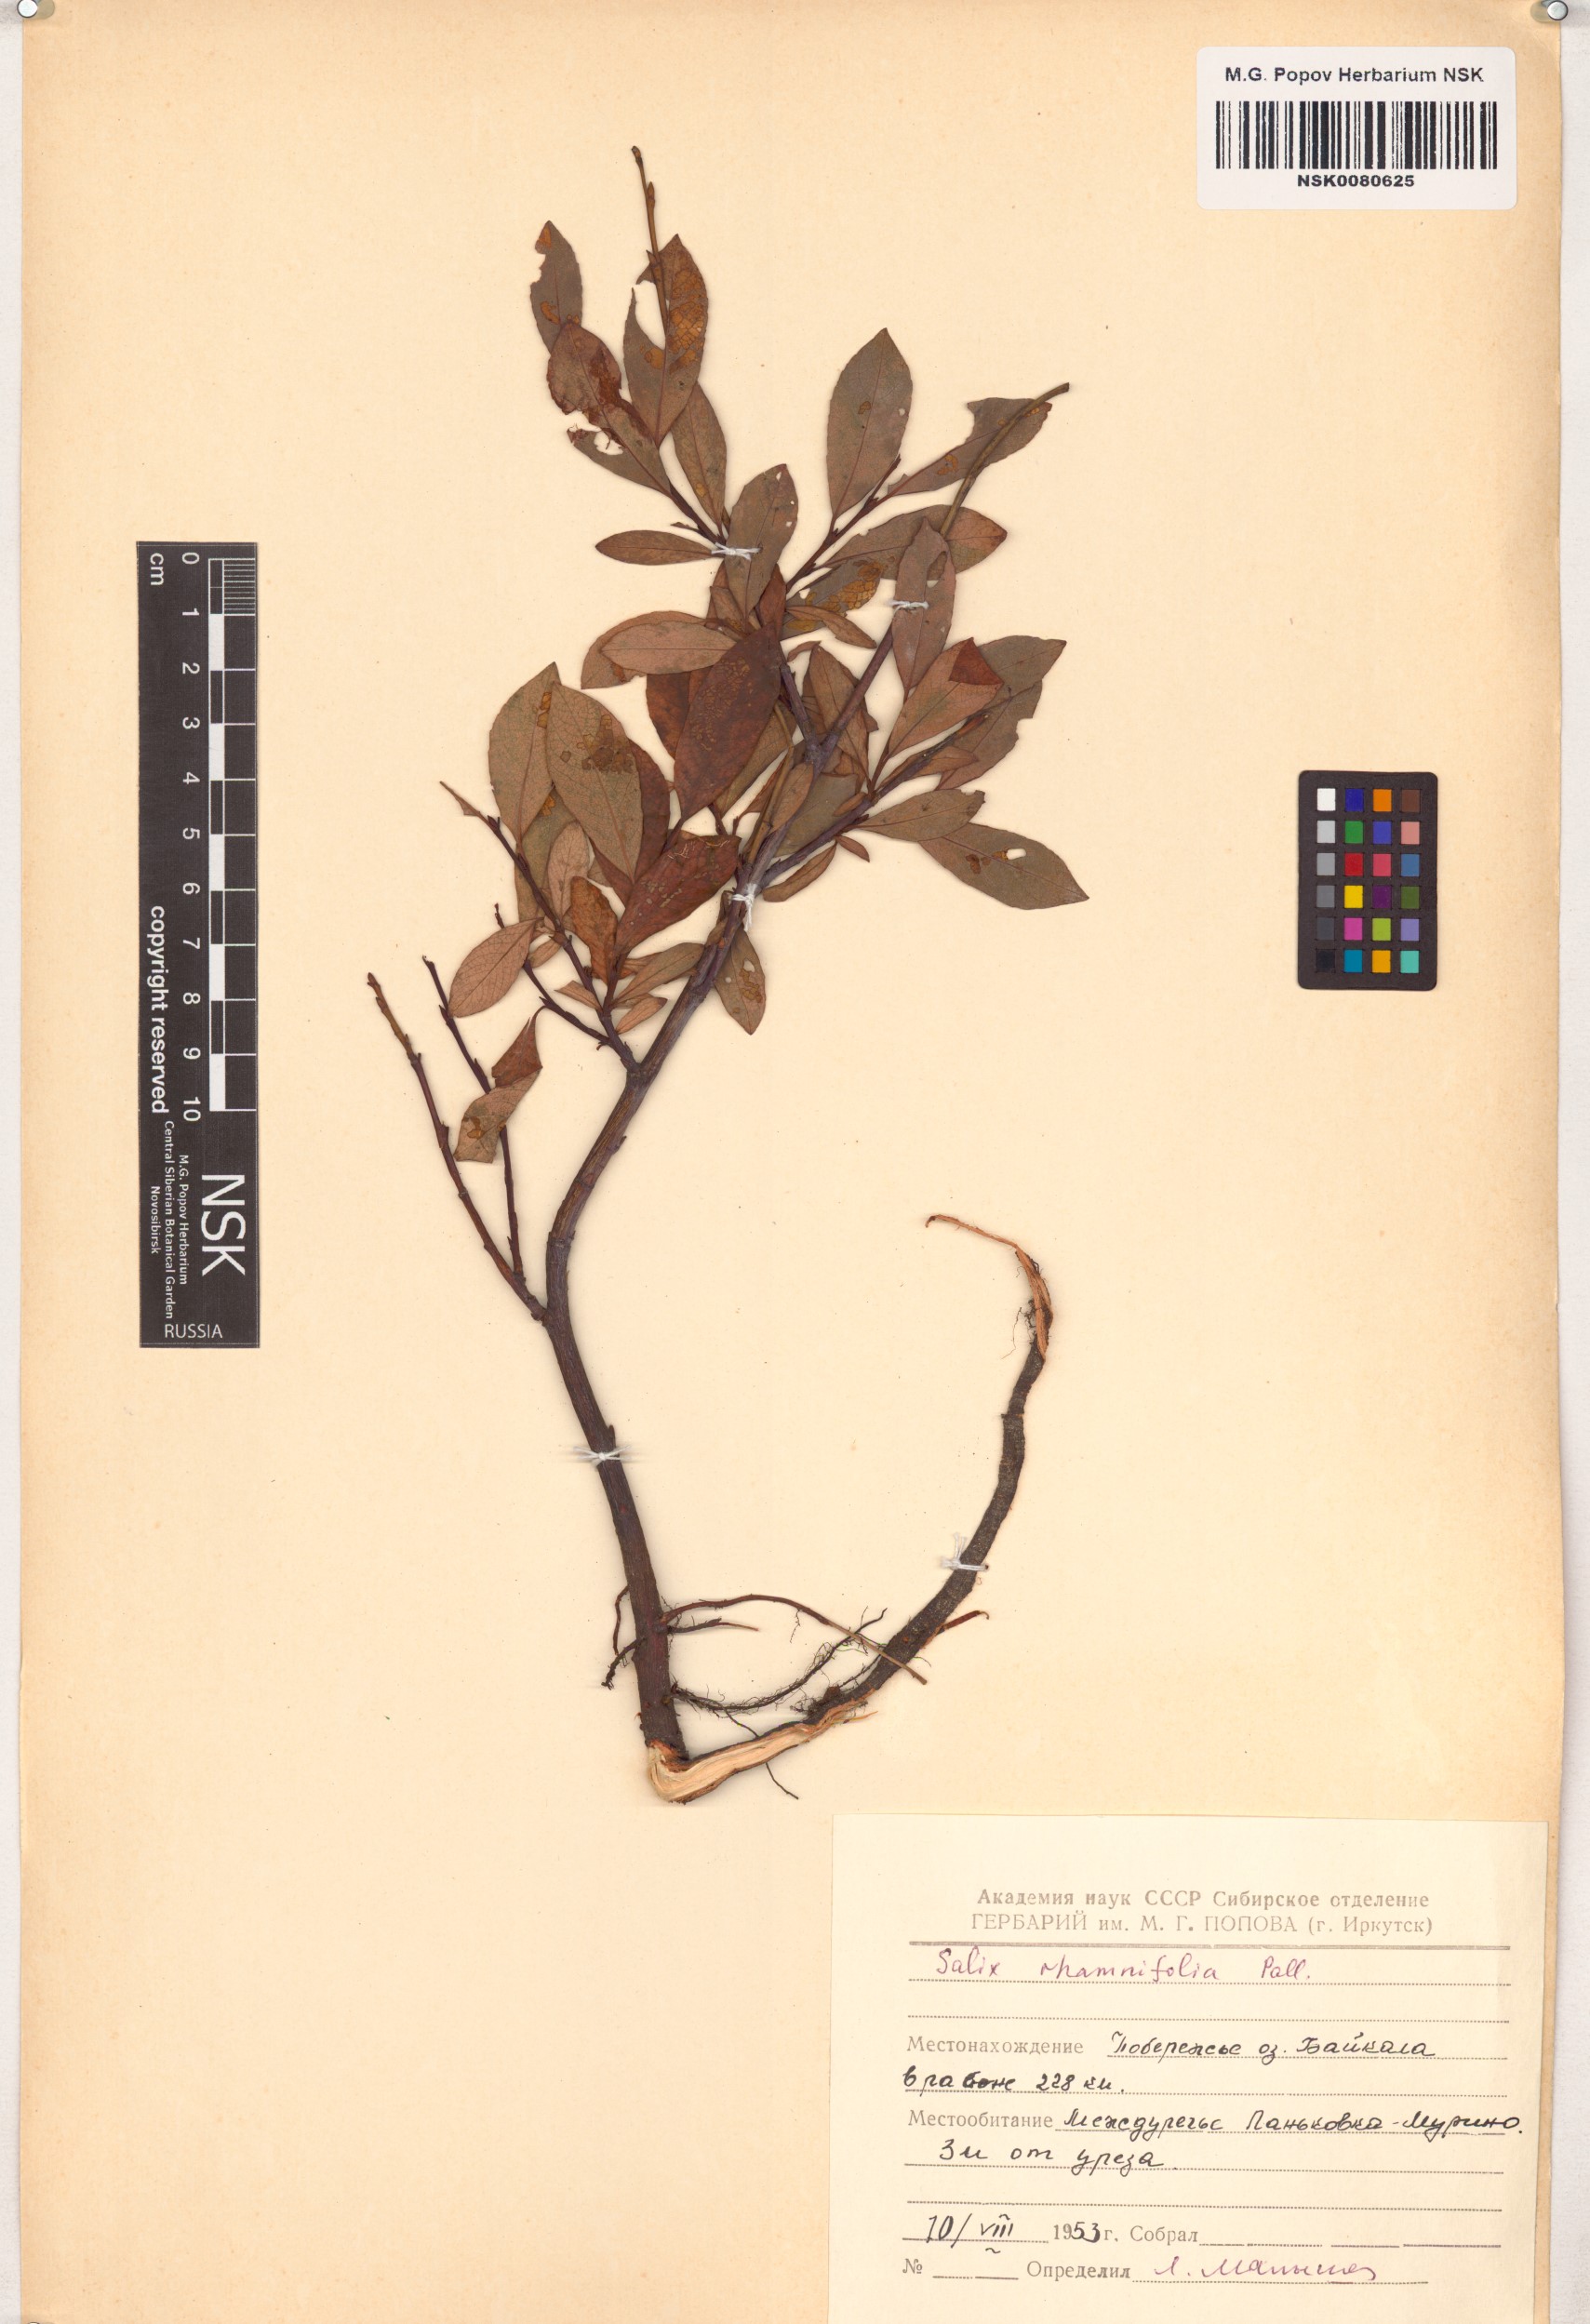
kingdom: Plantae
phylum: Tracheophyta
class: Magnoliopsida
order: Malpighiales
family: Salicaceae
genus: Salix
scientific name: Salix rhamnifolia
